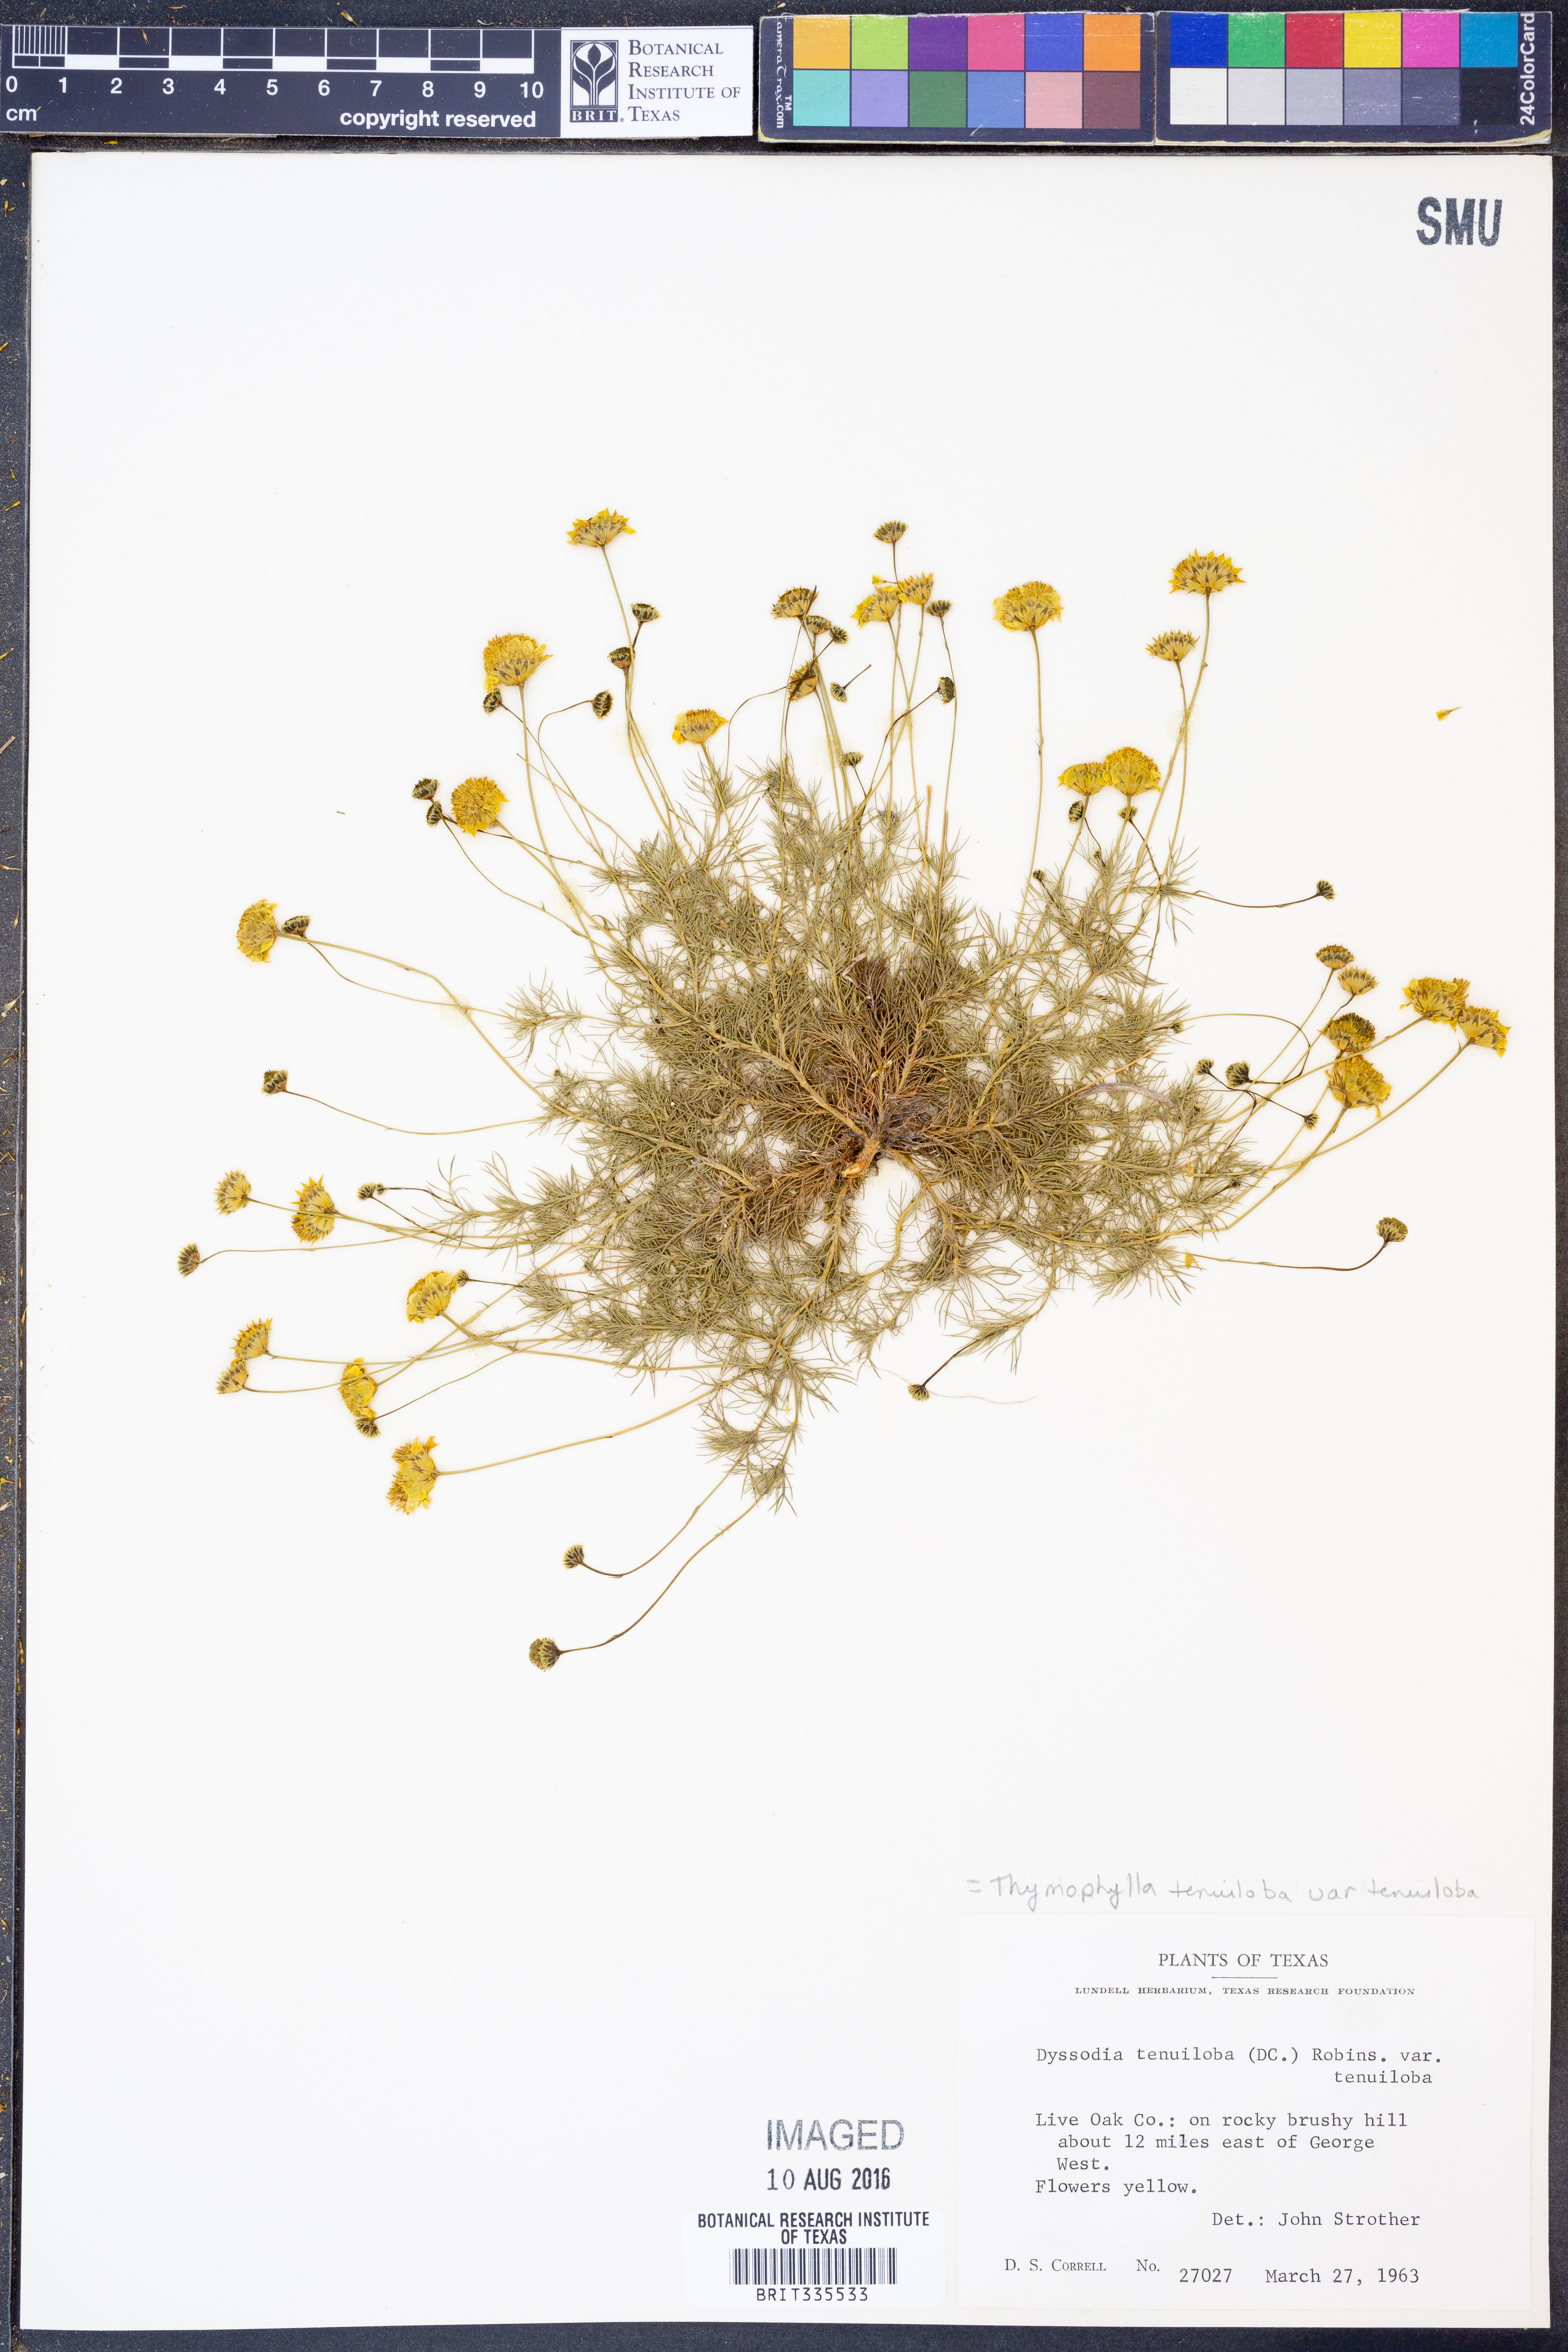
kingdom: Plantae
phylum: Tracheophyta
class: Magnoliopsida
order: Asterales
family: Asteraceae
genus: Thymophylla
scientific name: Thymophylla tenuiloba
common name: Dahlberg's daisy
